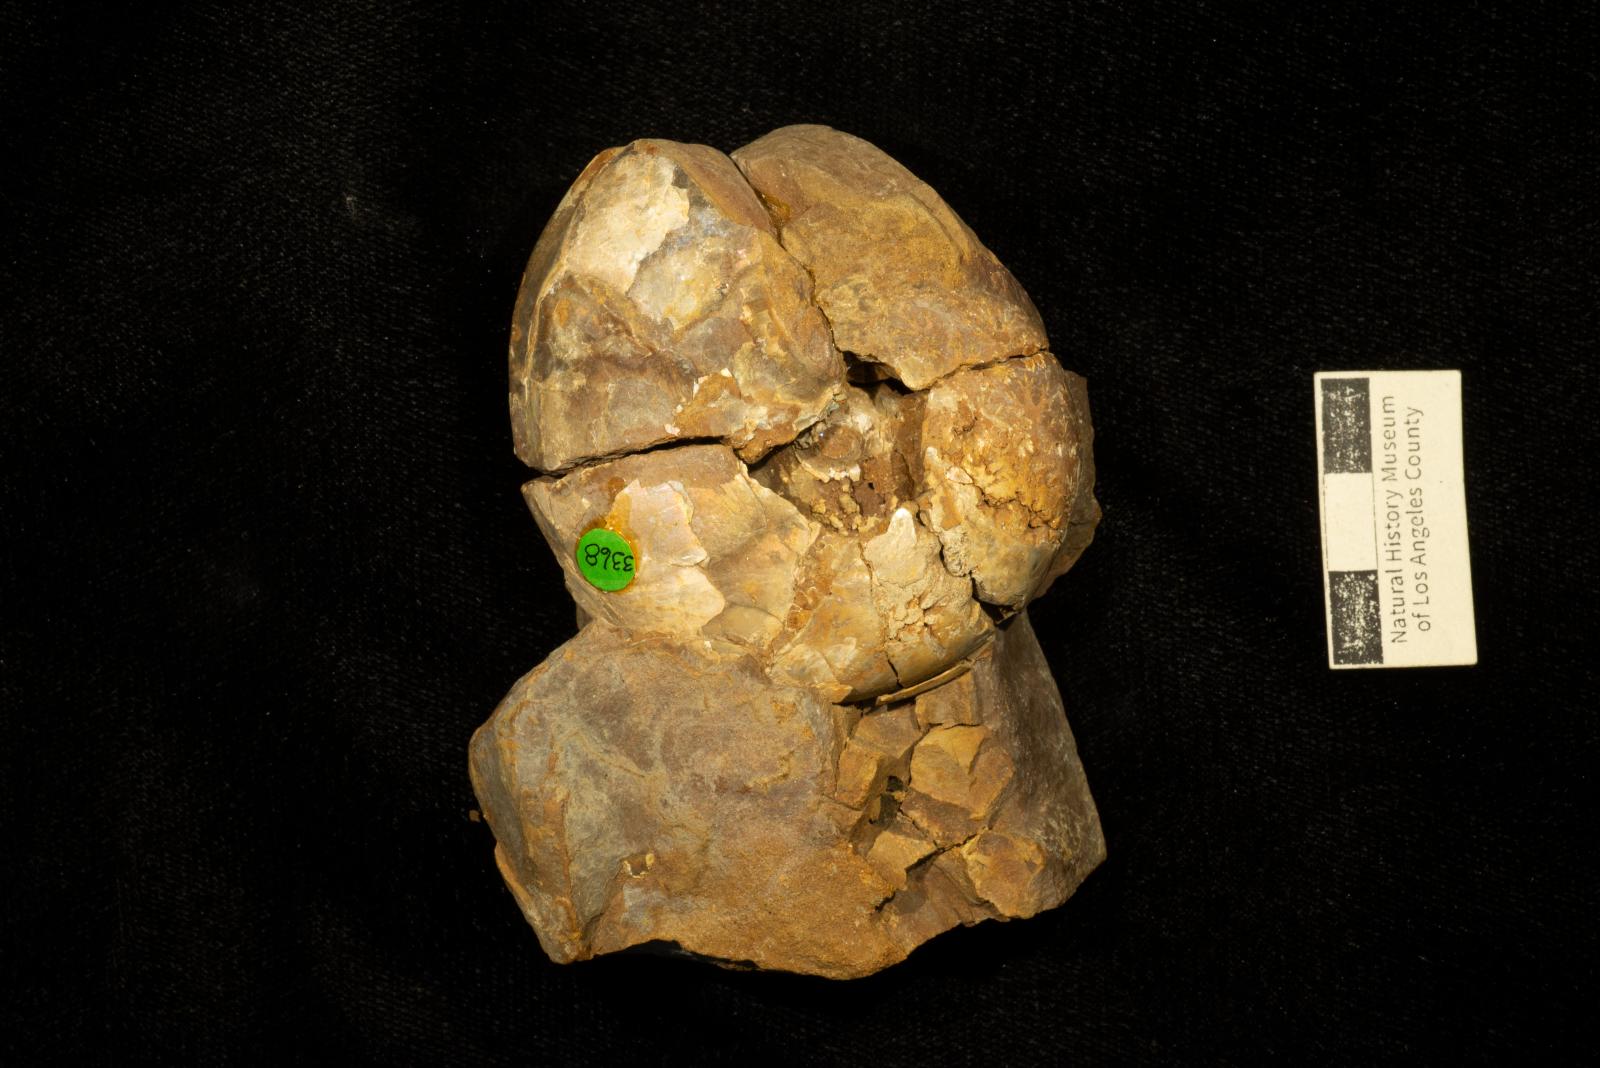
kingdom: Animalia
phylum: Mollusca
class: Cephalopoda
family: Desmoceratidae
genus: Damesites
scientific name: Damesites damesi
